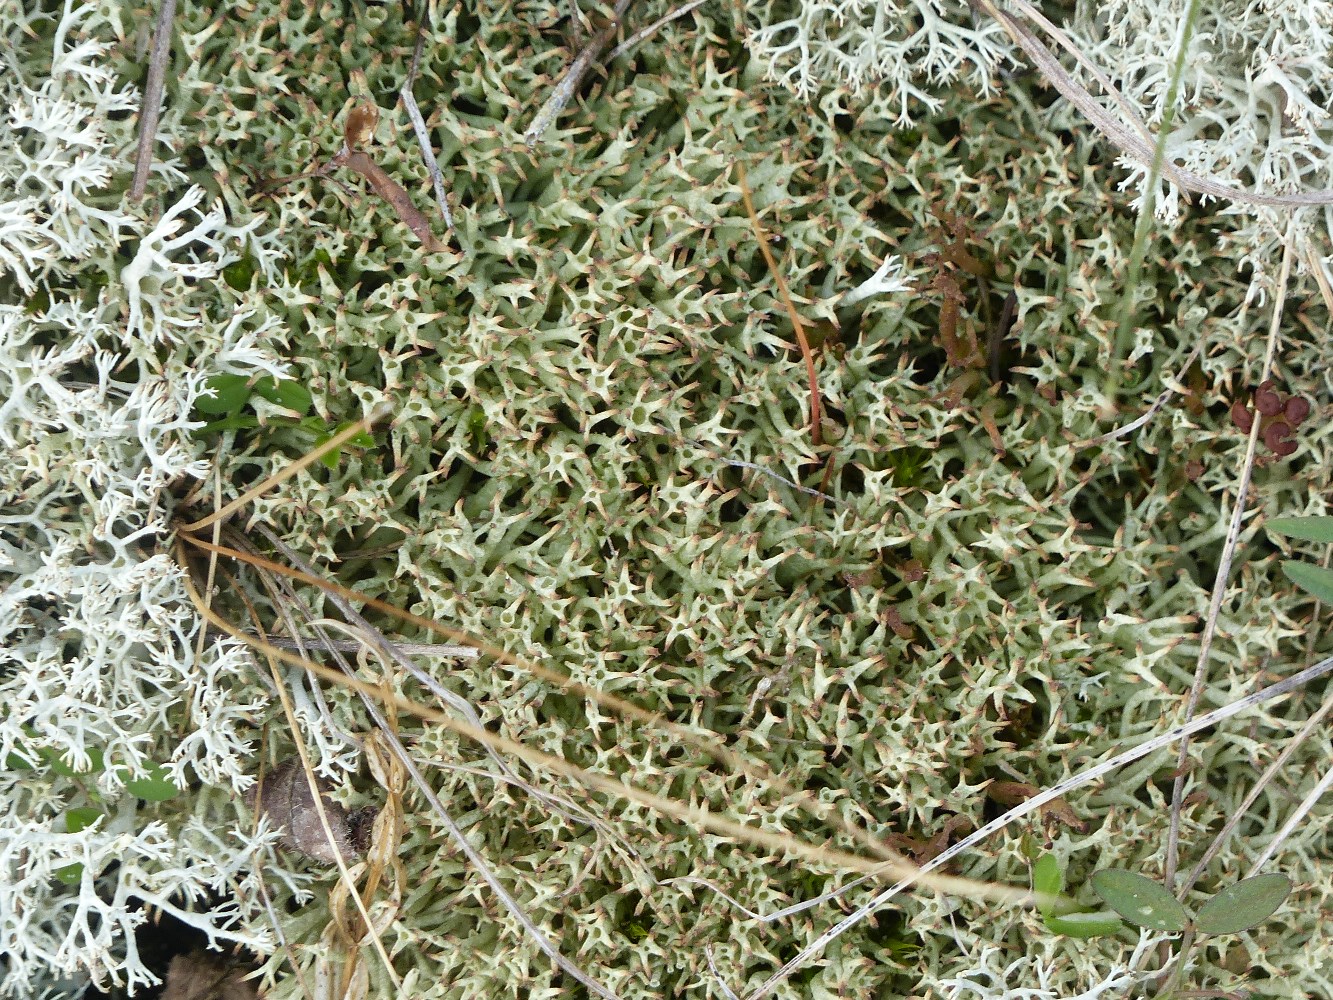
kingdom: Fungi
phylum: Ascomycota
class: Lecanoromycetes
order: Lecanorales
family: Cladoniaceae
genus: Cladonia
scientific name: Cladonia uncialis
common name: pigget bægerlav
